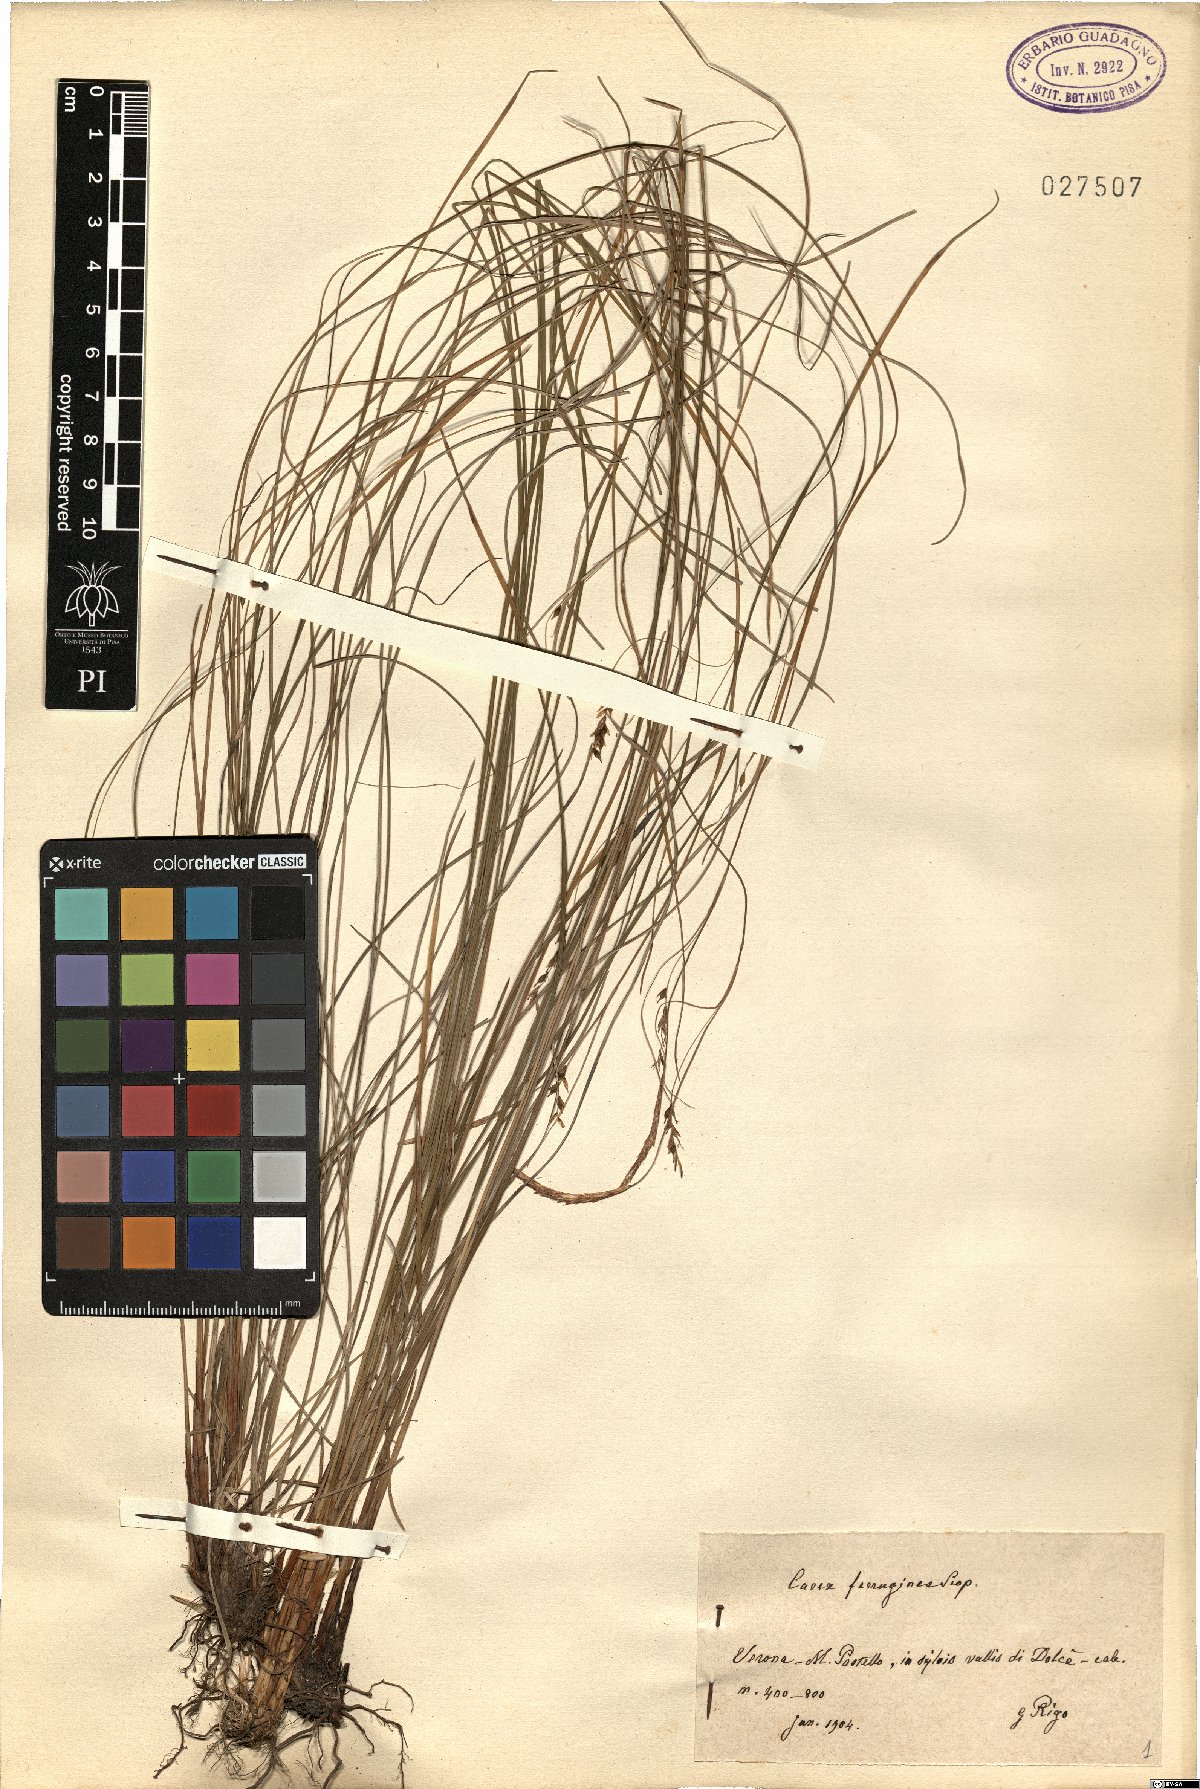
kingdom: Plantae
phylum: Tracheophyta
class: Liliopsida
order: Poales
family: Cyperaceae
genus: Carex
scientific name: Carex ferruginea
